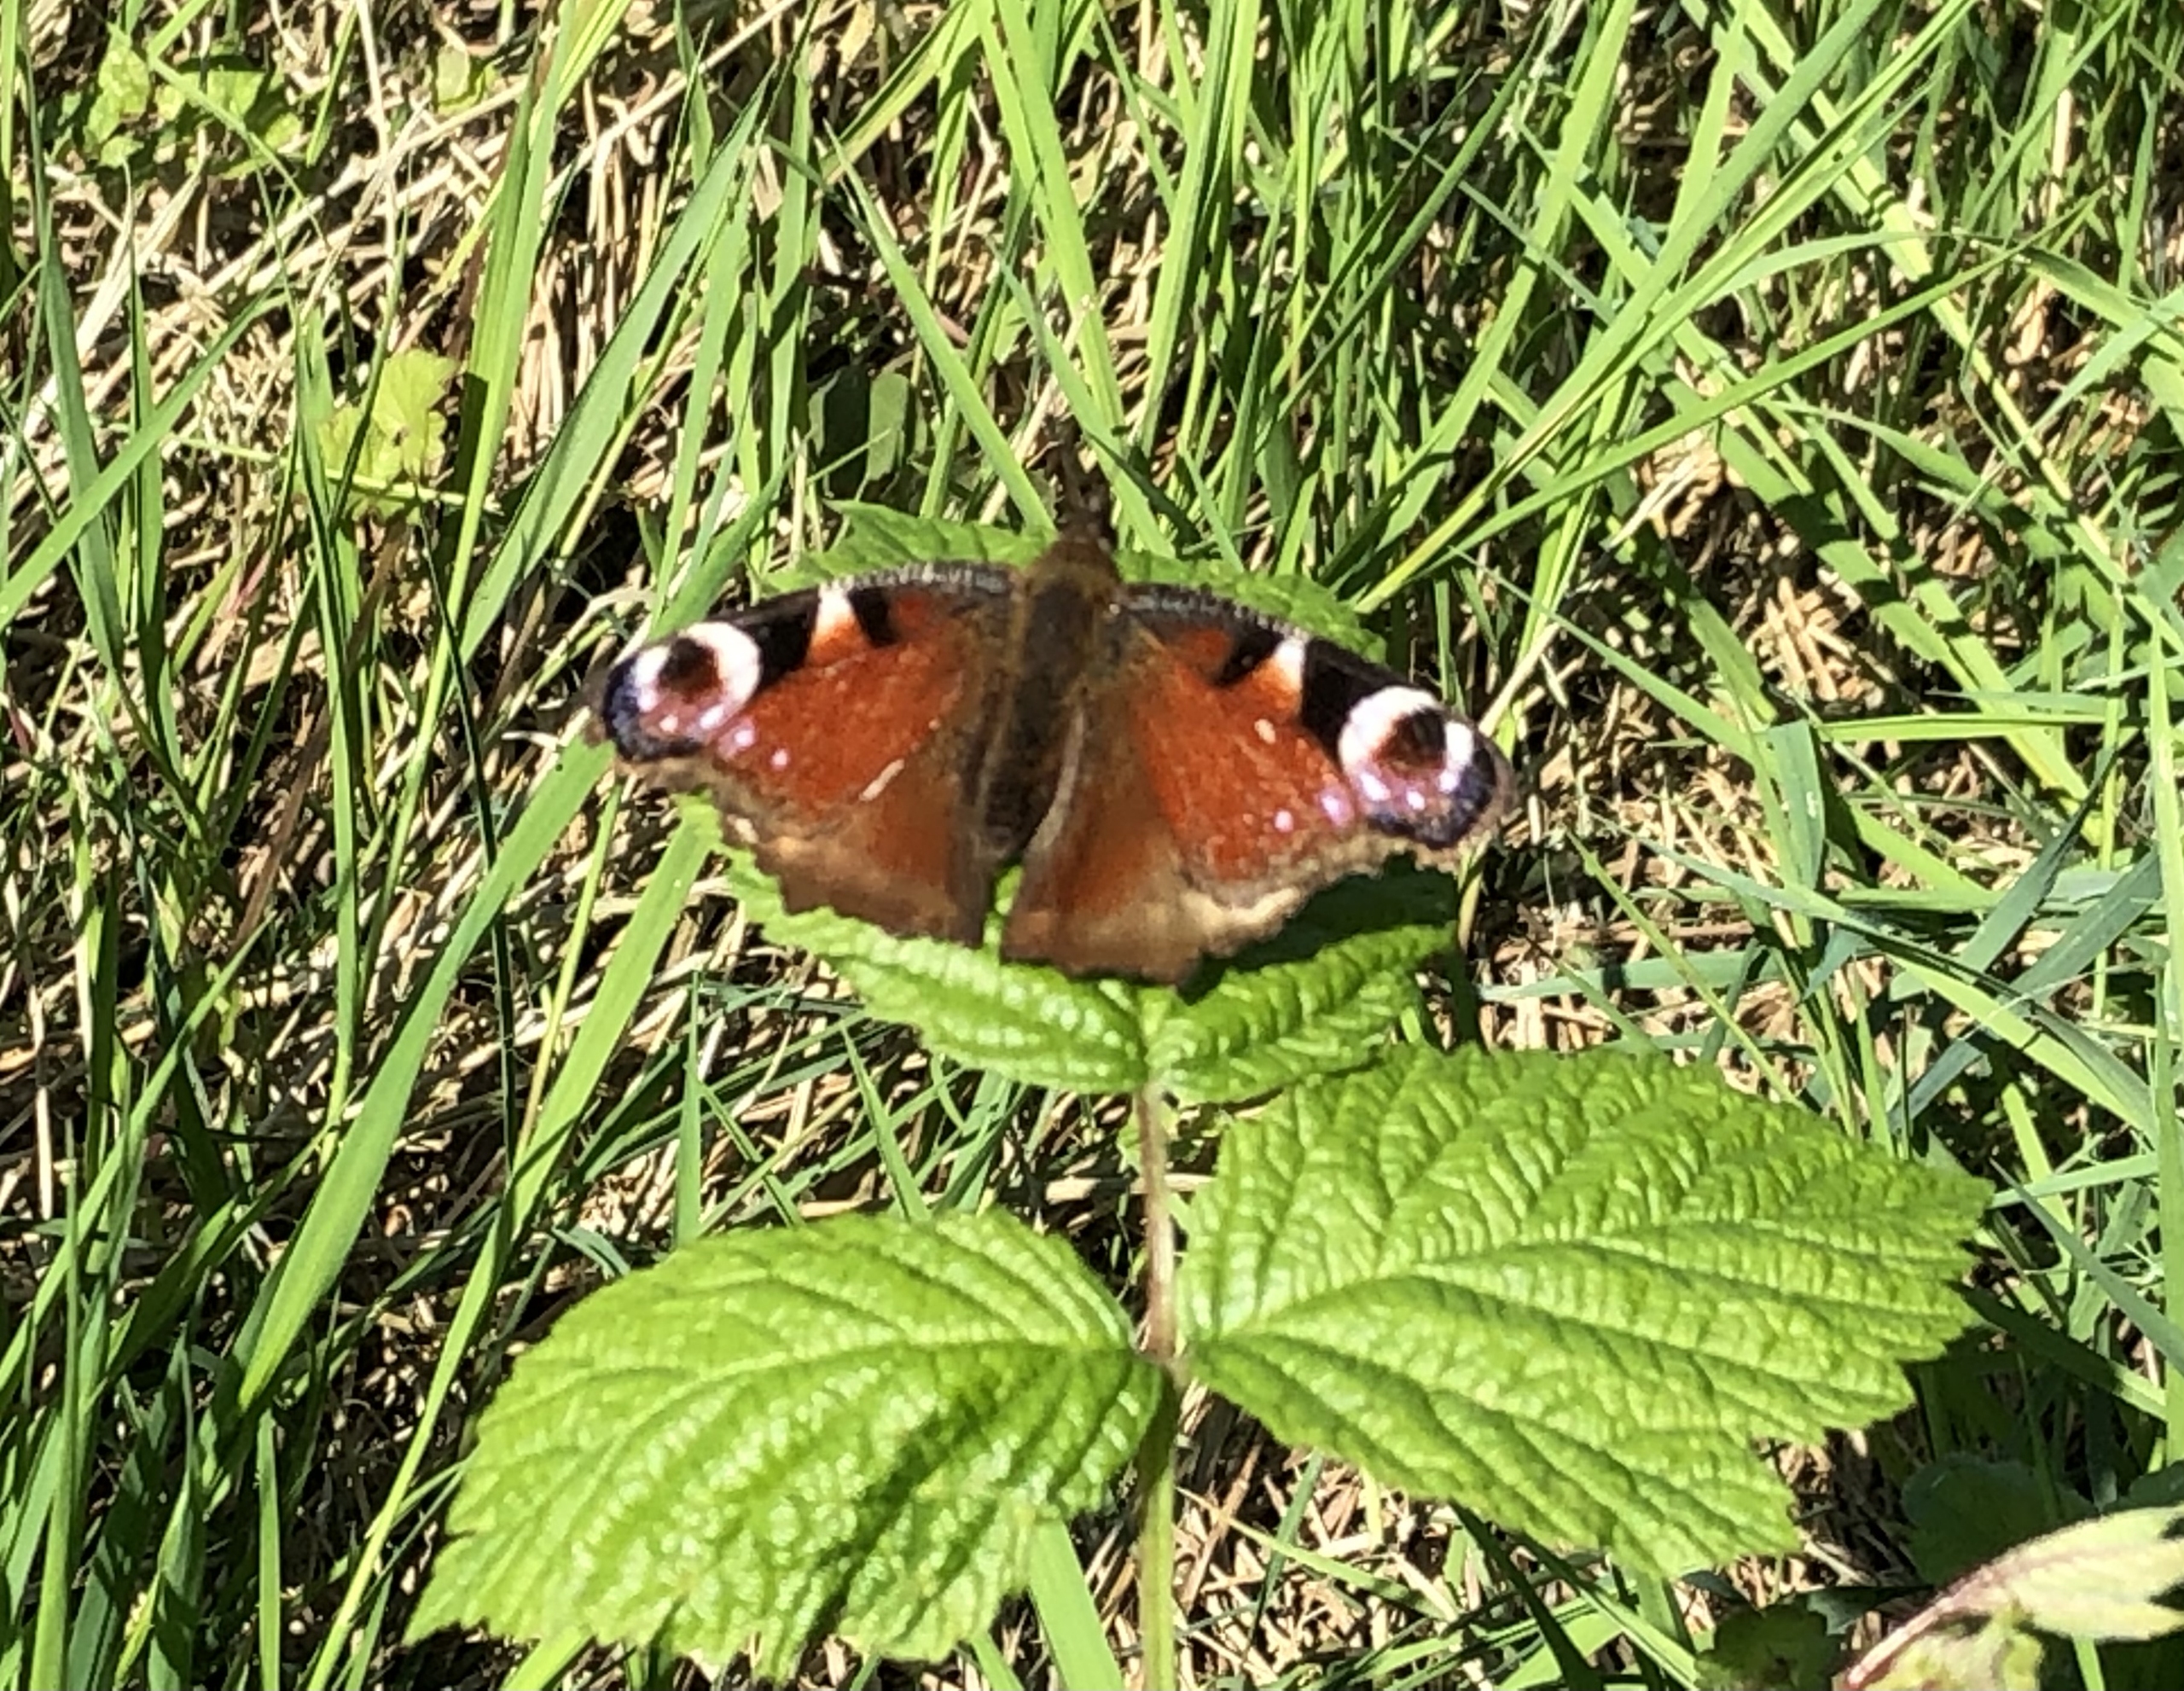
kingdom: Animalia
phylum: Arthropoda
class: Insecta
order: Lepidoptera
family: Nymphalidae
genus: Aglais
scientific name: Aglais io
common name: Dagpåfugleøje
